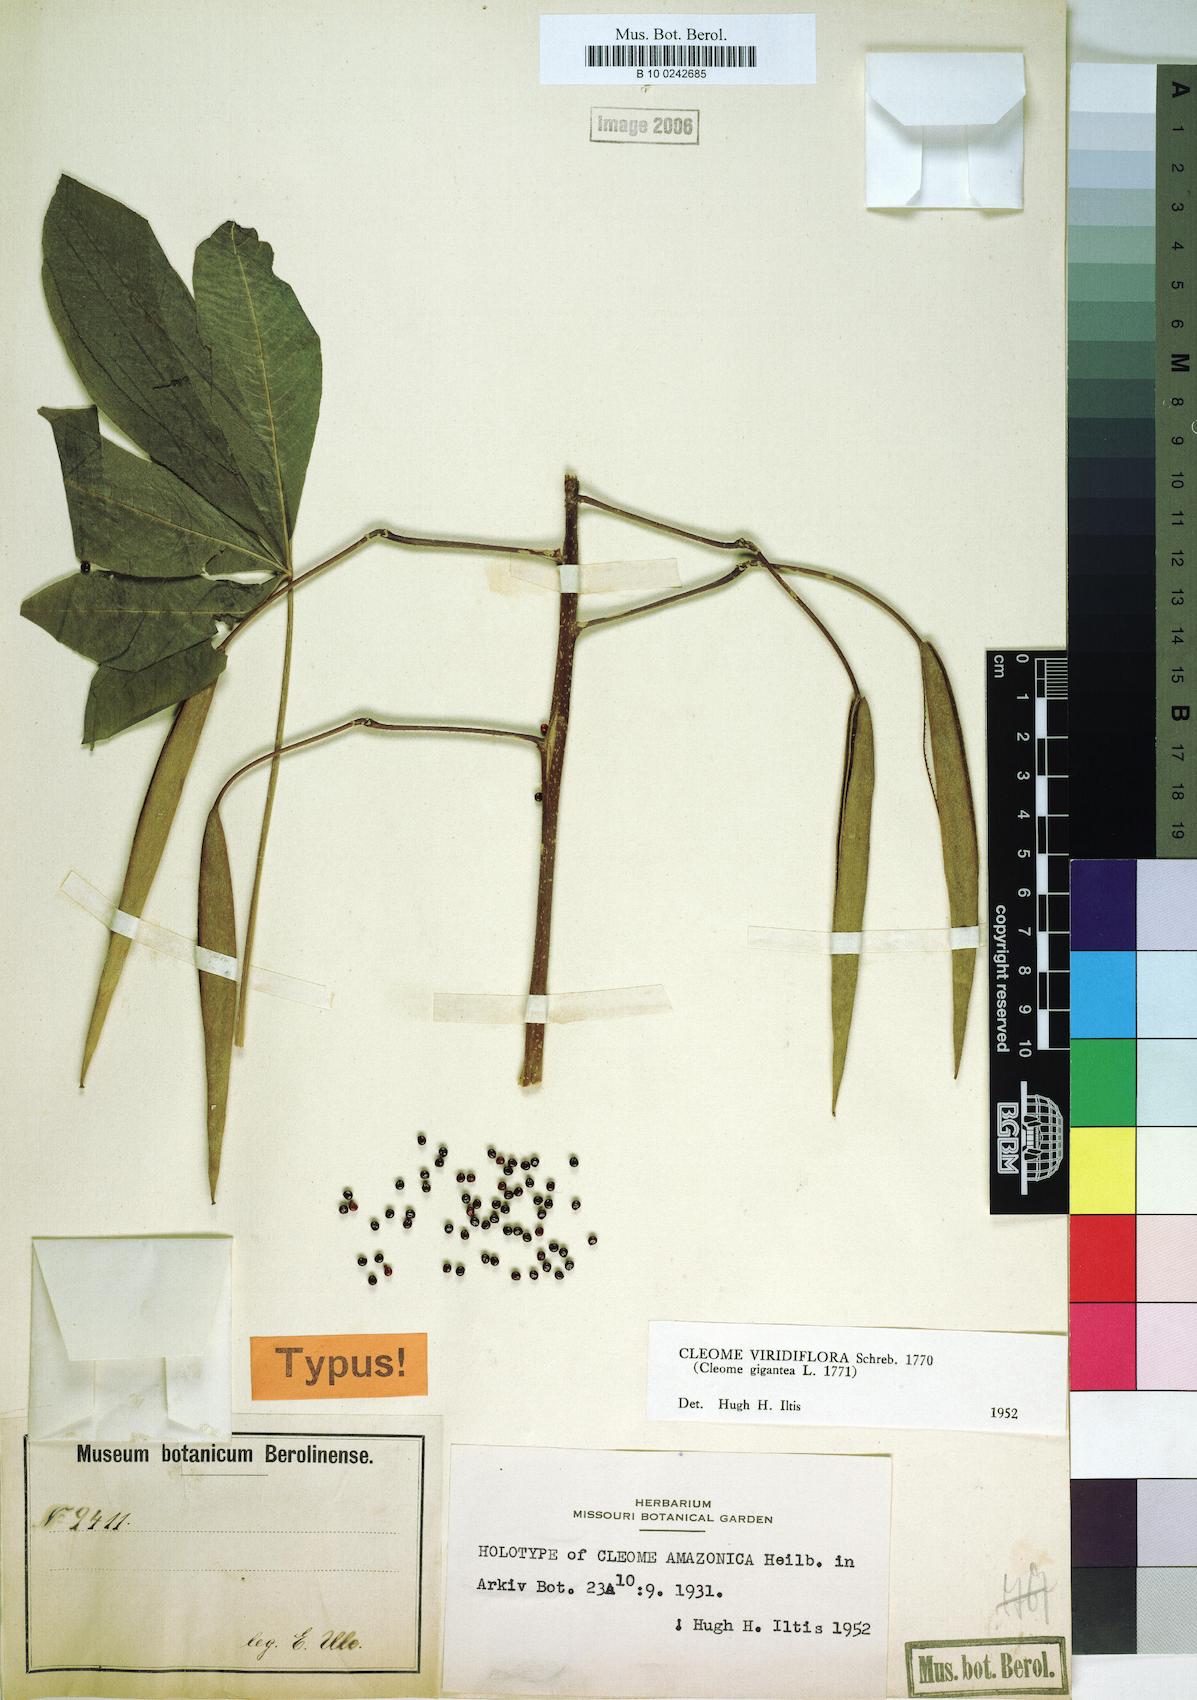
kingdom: Plantae
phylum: Tracheophyta
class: Magnoliopsida
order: Brassicales
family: Cleomaceae
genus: Melidiscus
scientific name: Melidiscus gigantea
